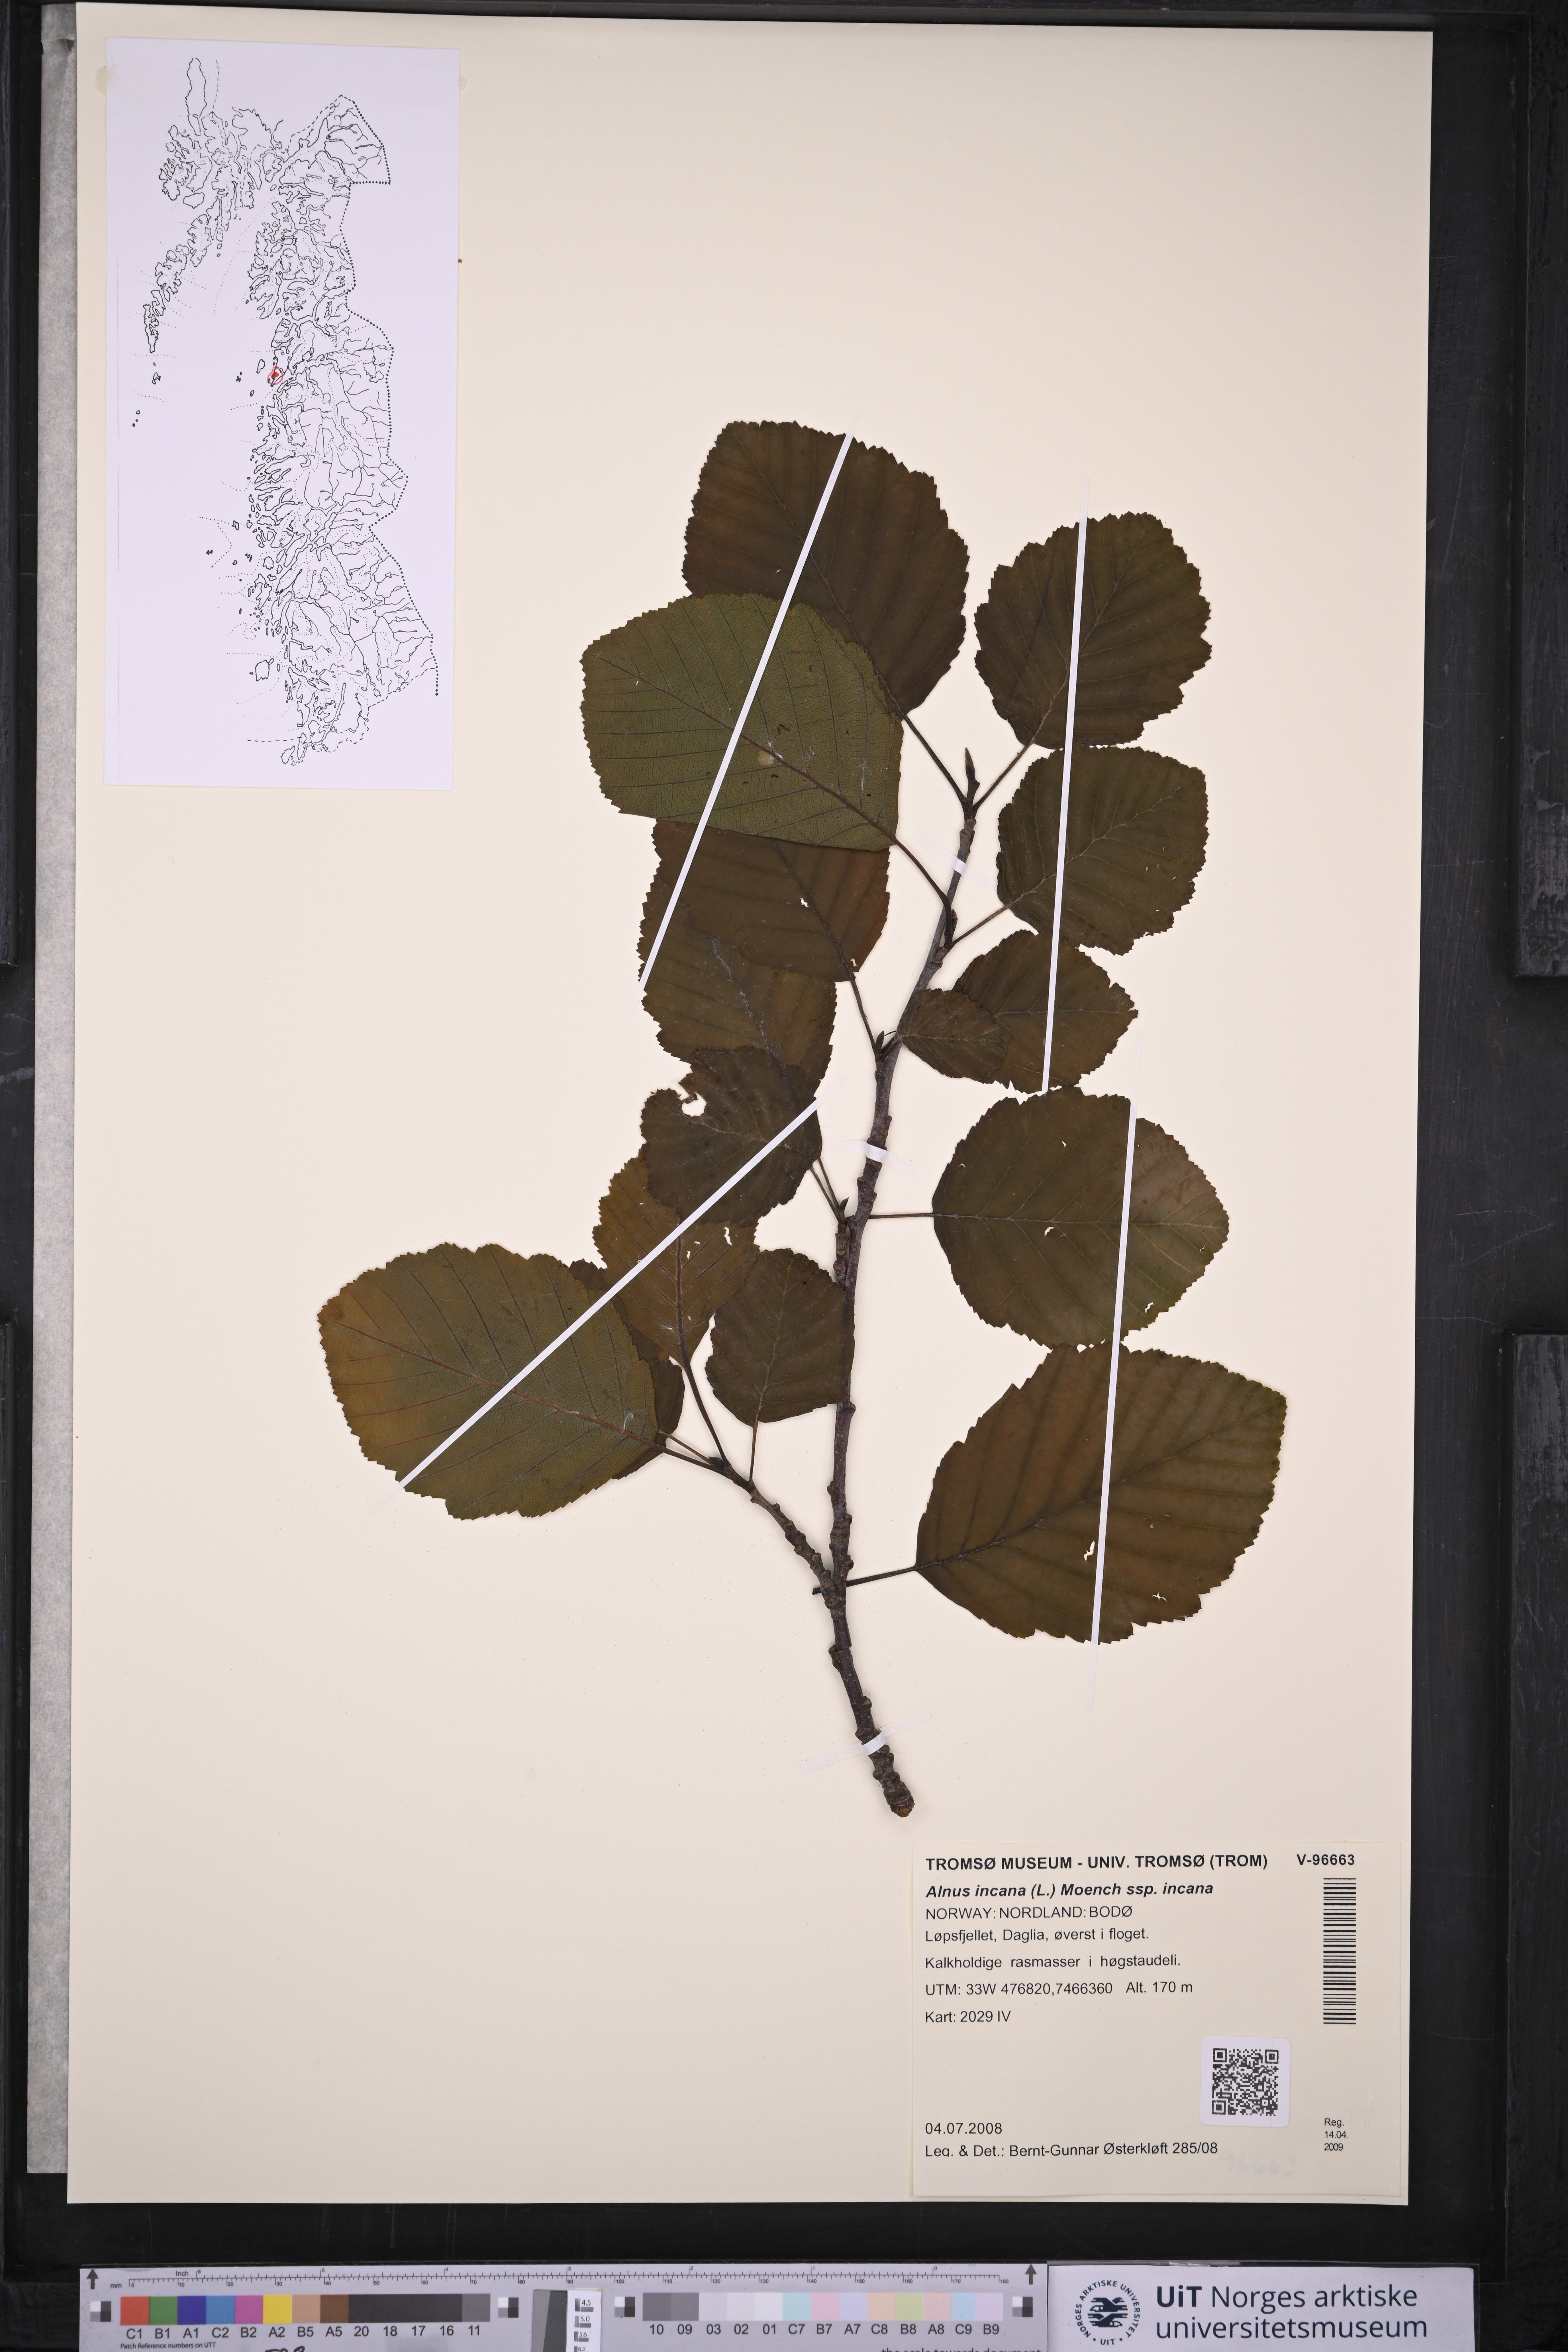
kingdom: Plantae
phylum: Tracheophyta
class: Magnoliopsida
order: Fagales
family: Betulaceae
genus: Alnus
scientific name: Alnus incana
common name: Grey alder
